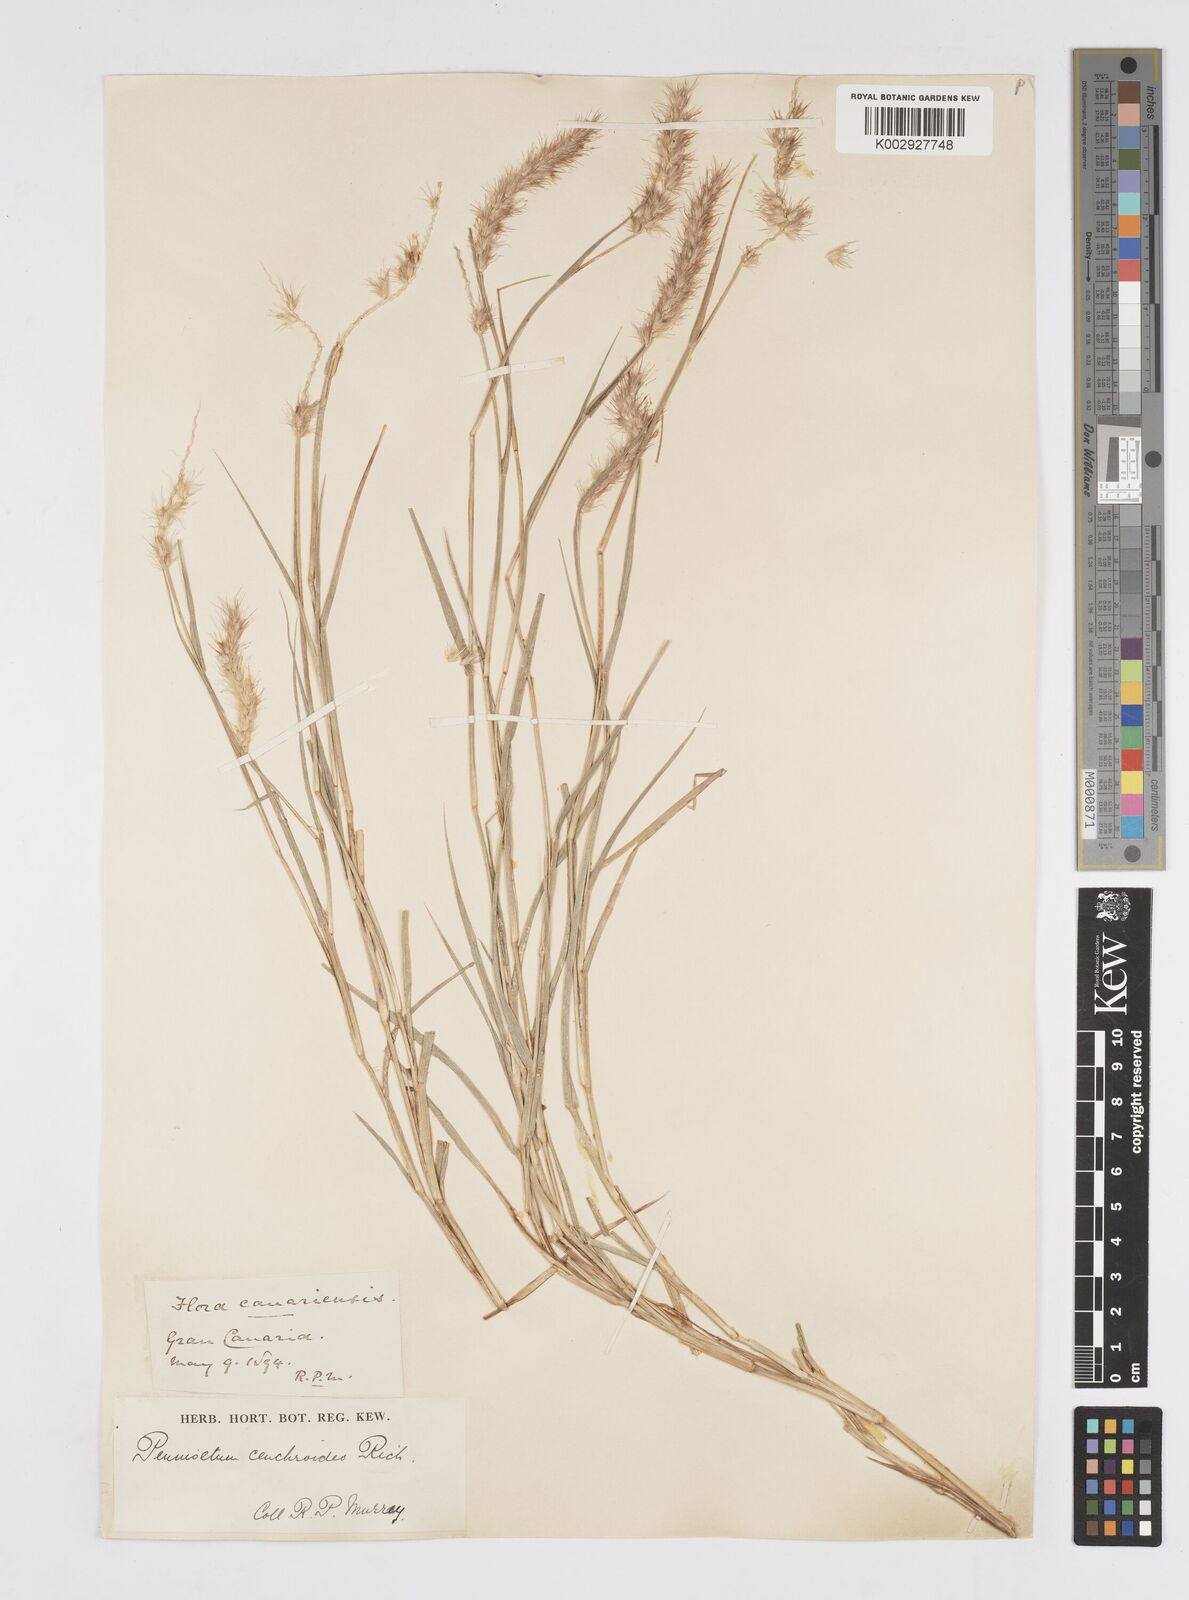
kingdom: Plantae
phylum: Tracheophyta
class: Liliopsida
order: Poales
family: Poaceae
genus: Cenchrus
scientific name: Cenchrus
